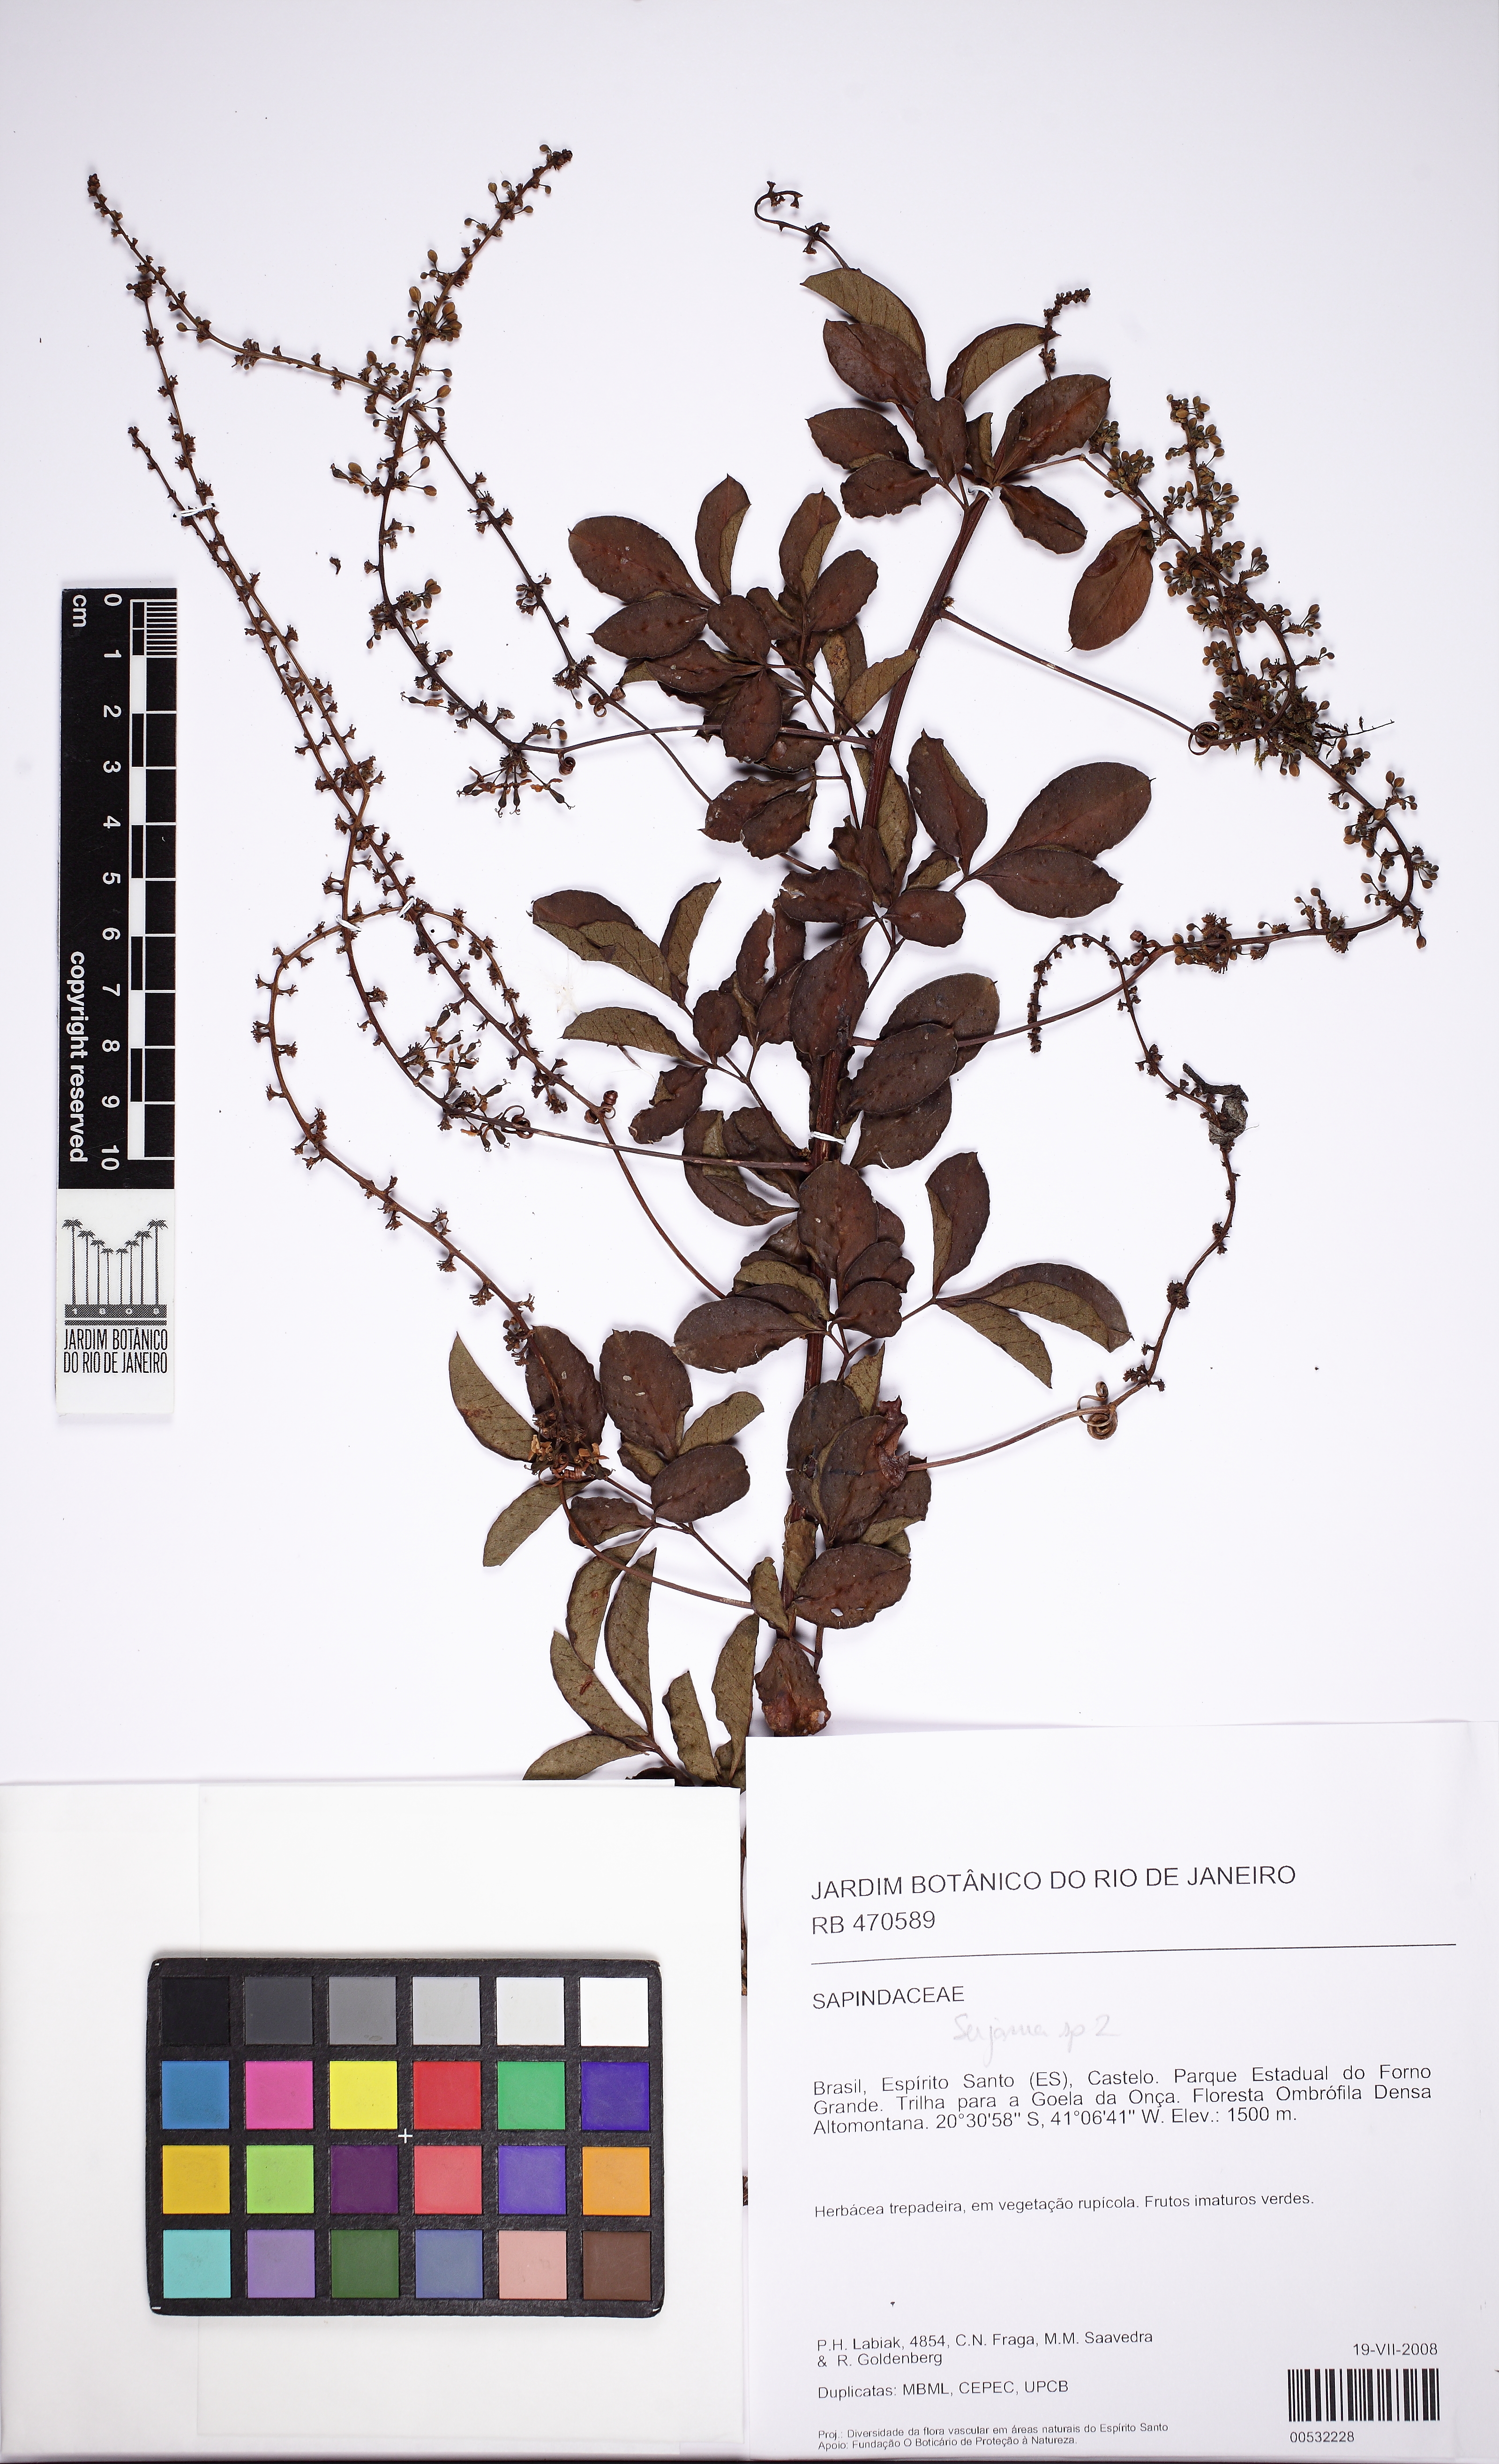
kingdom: Plantae
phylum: Tracheophyta
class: Magnoliopsida
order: Sapindales
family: Sapindaceae
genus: Serjania
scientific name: Serjania
